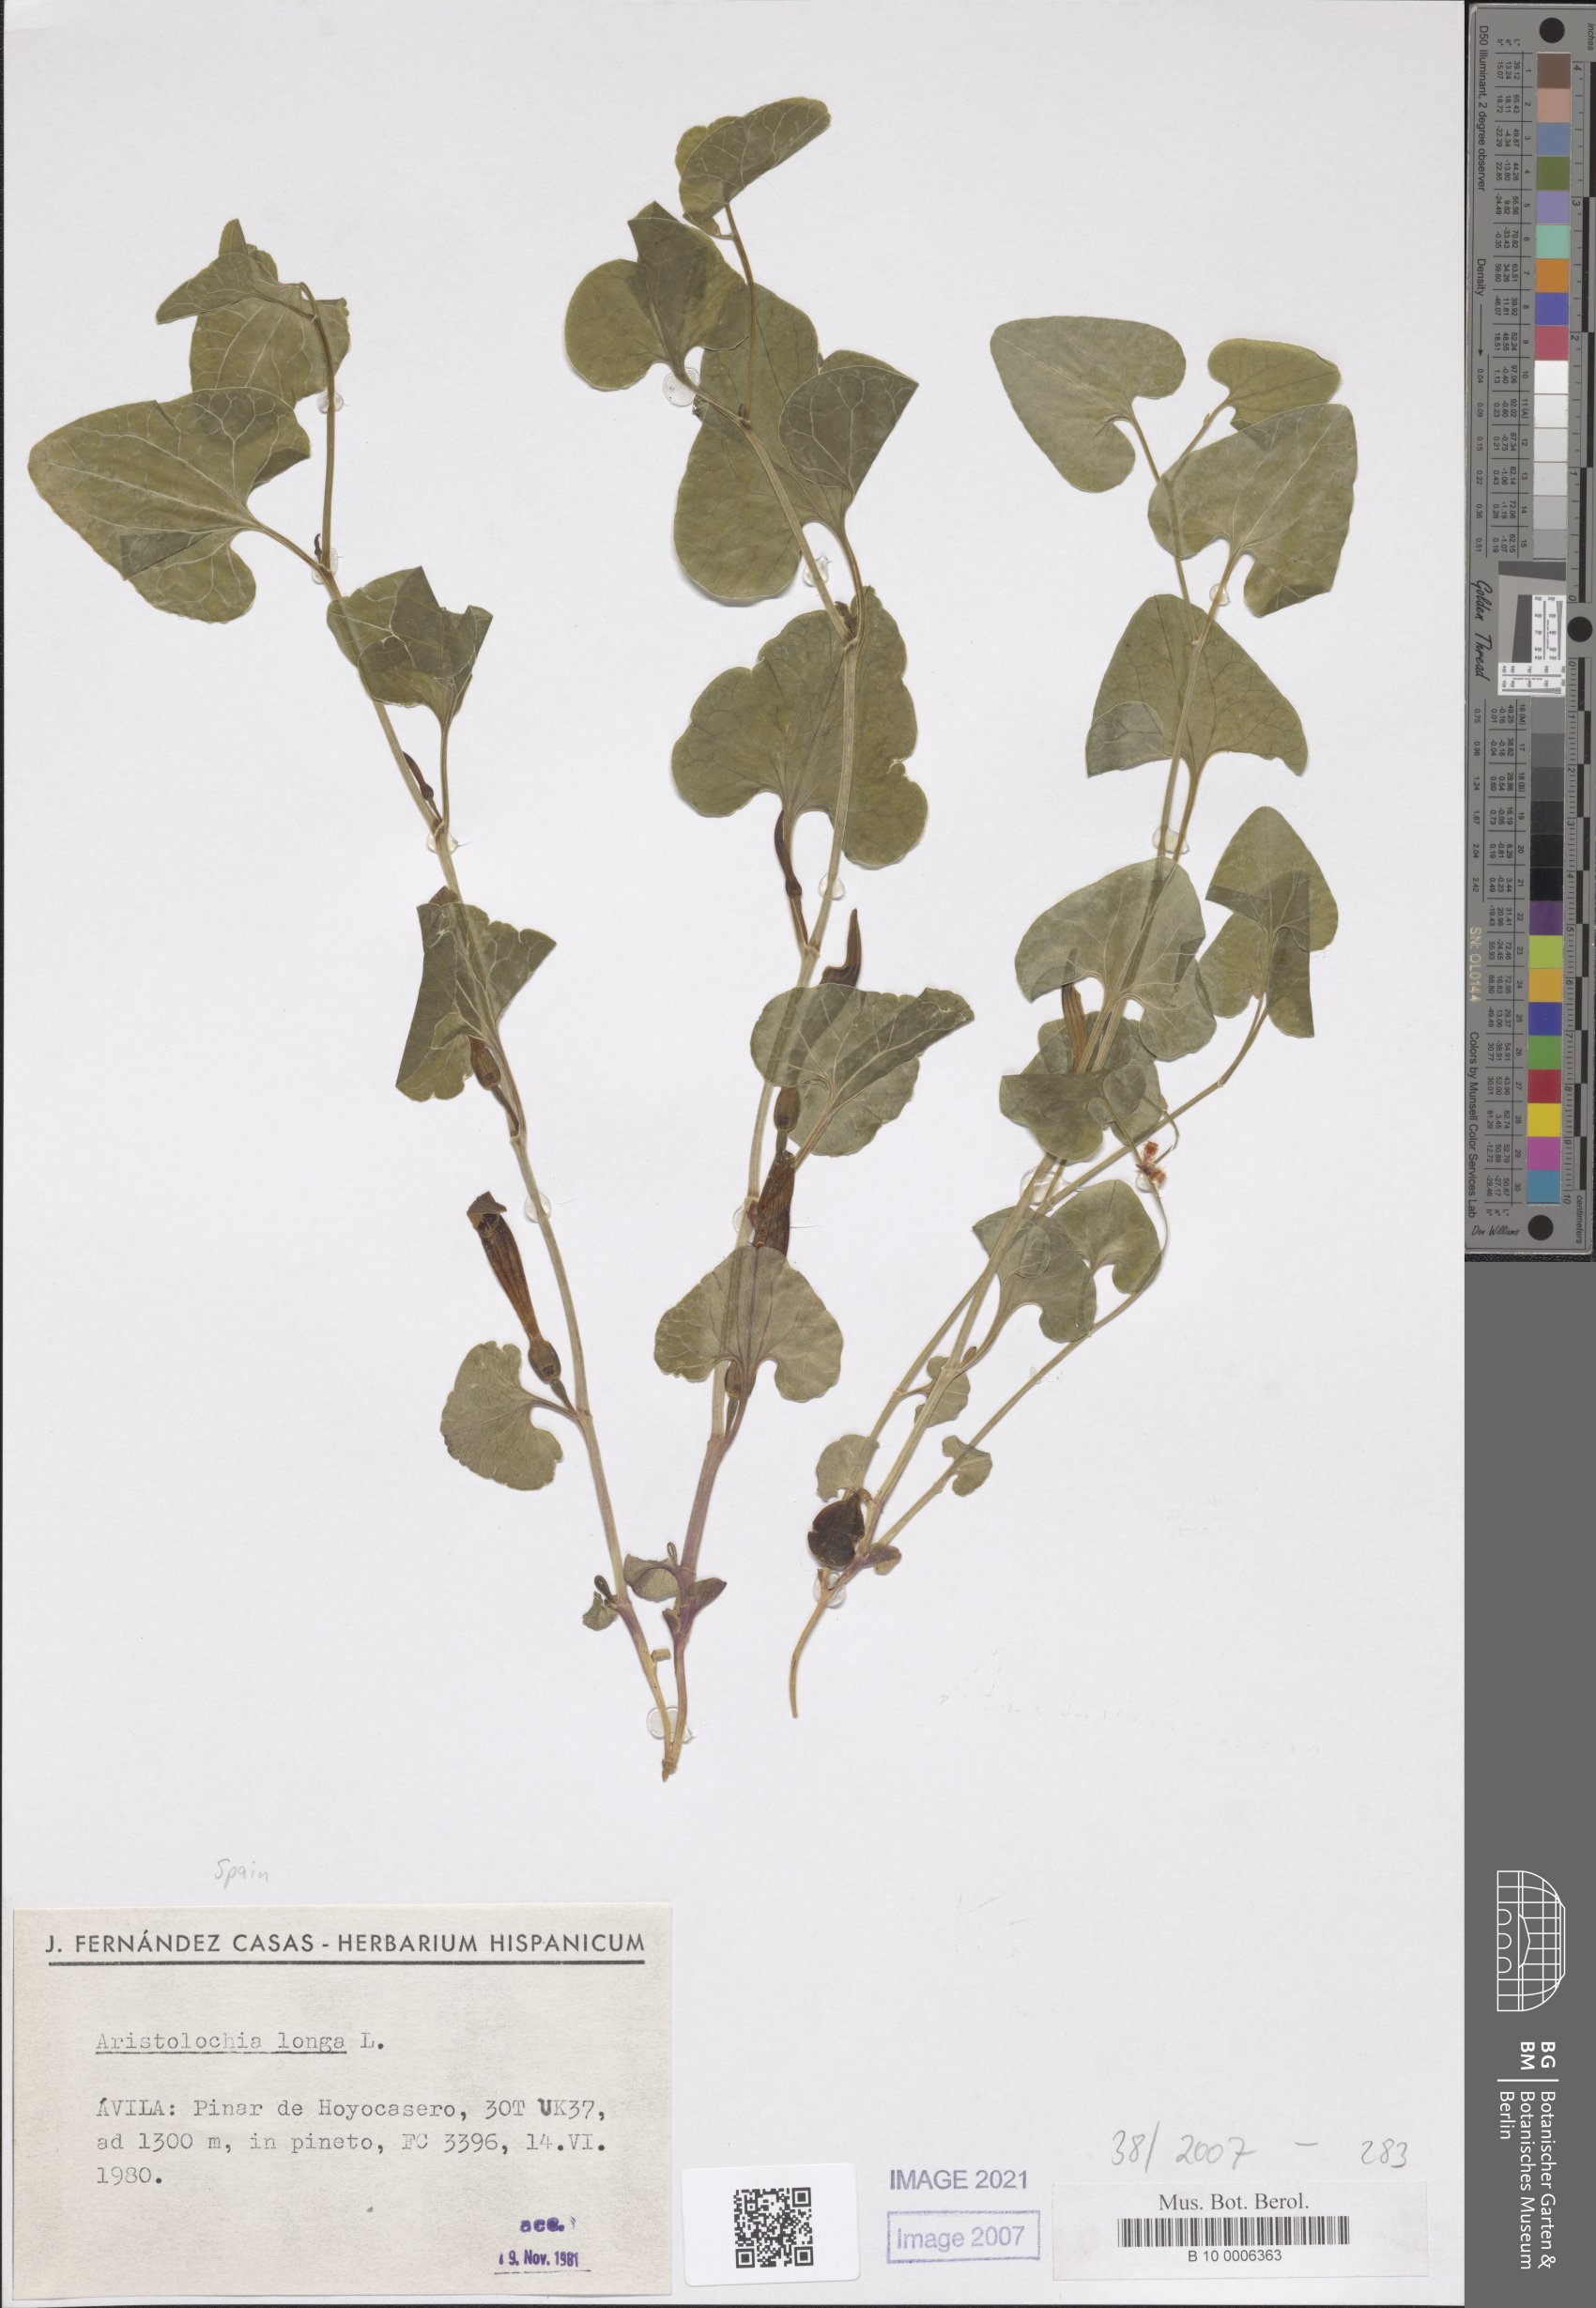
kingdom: Plantae
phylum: Tracheophyta
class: Magnoliopsida
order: Piperales
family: Aristolochiaceae
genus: Aristolochia
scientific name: Aristolochia fontanesii
